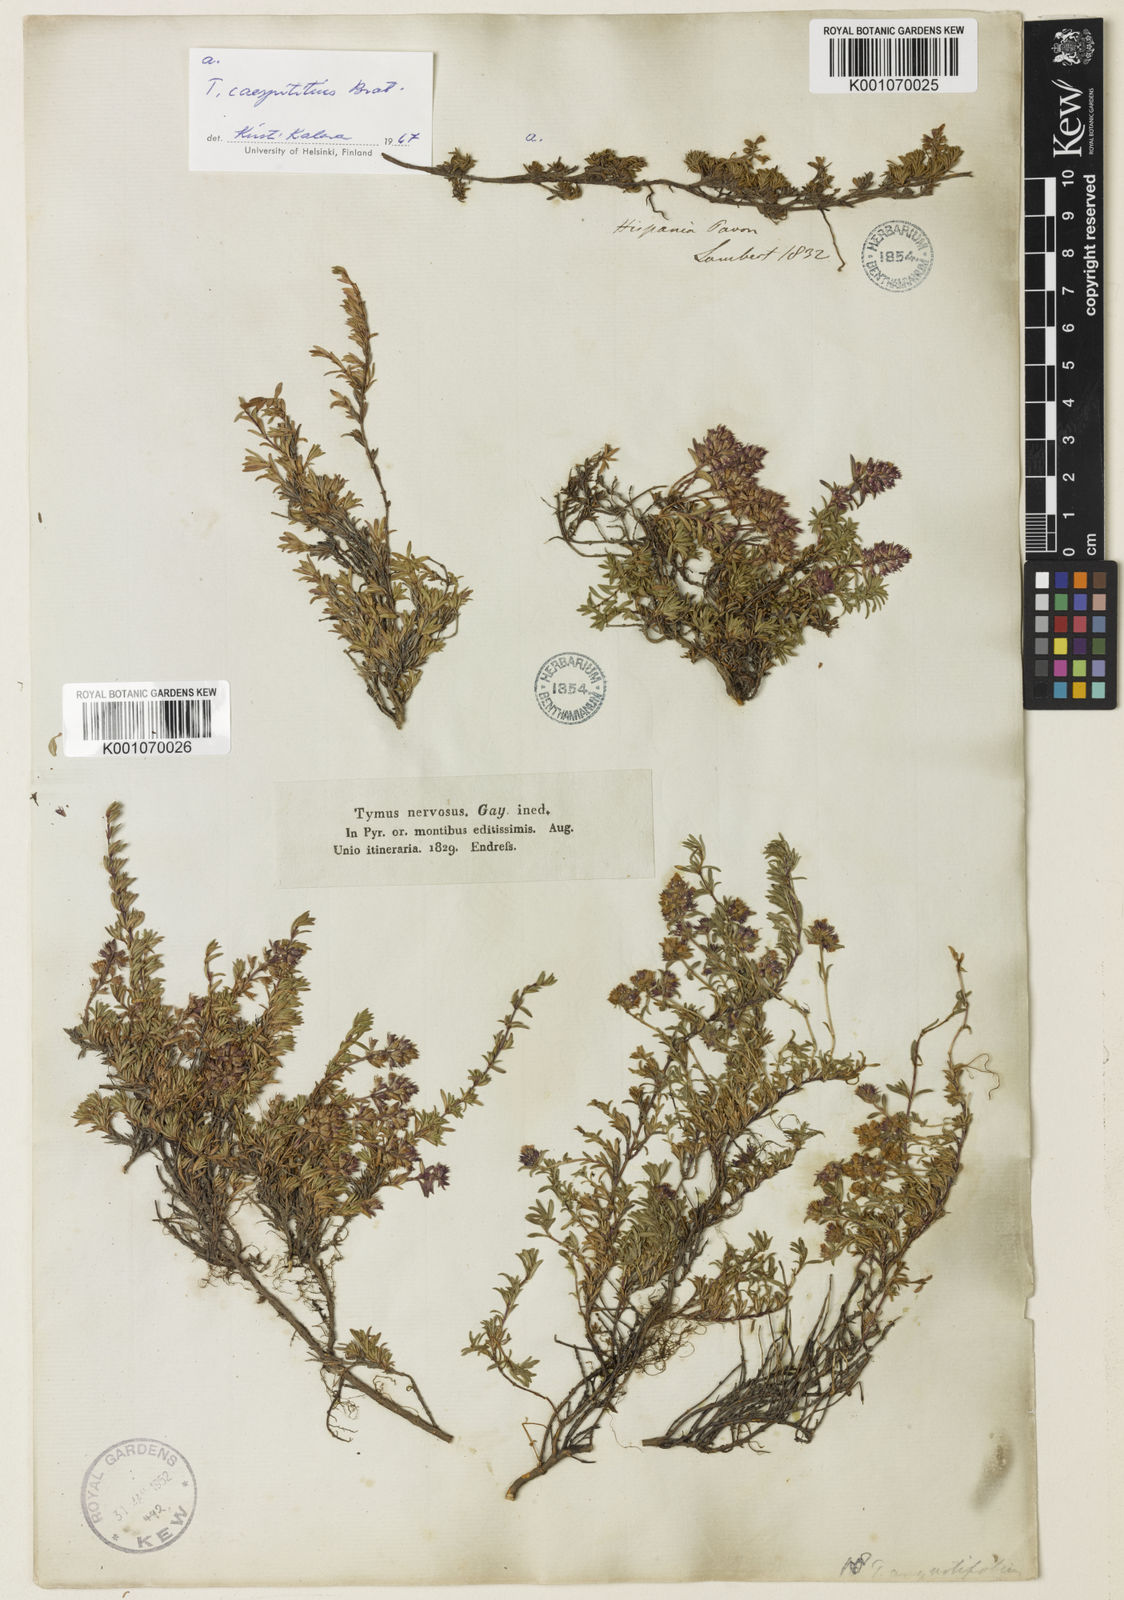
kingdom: Plantae
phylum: Tracheophyta
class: Magnoliopsida
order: Lamiales
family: Lamiaceae
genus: Thymus
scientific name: Thymus nervosus
